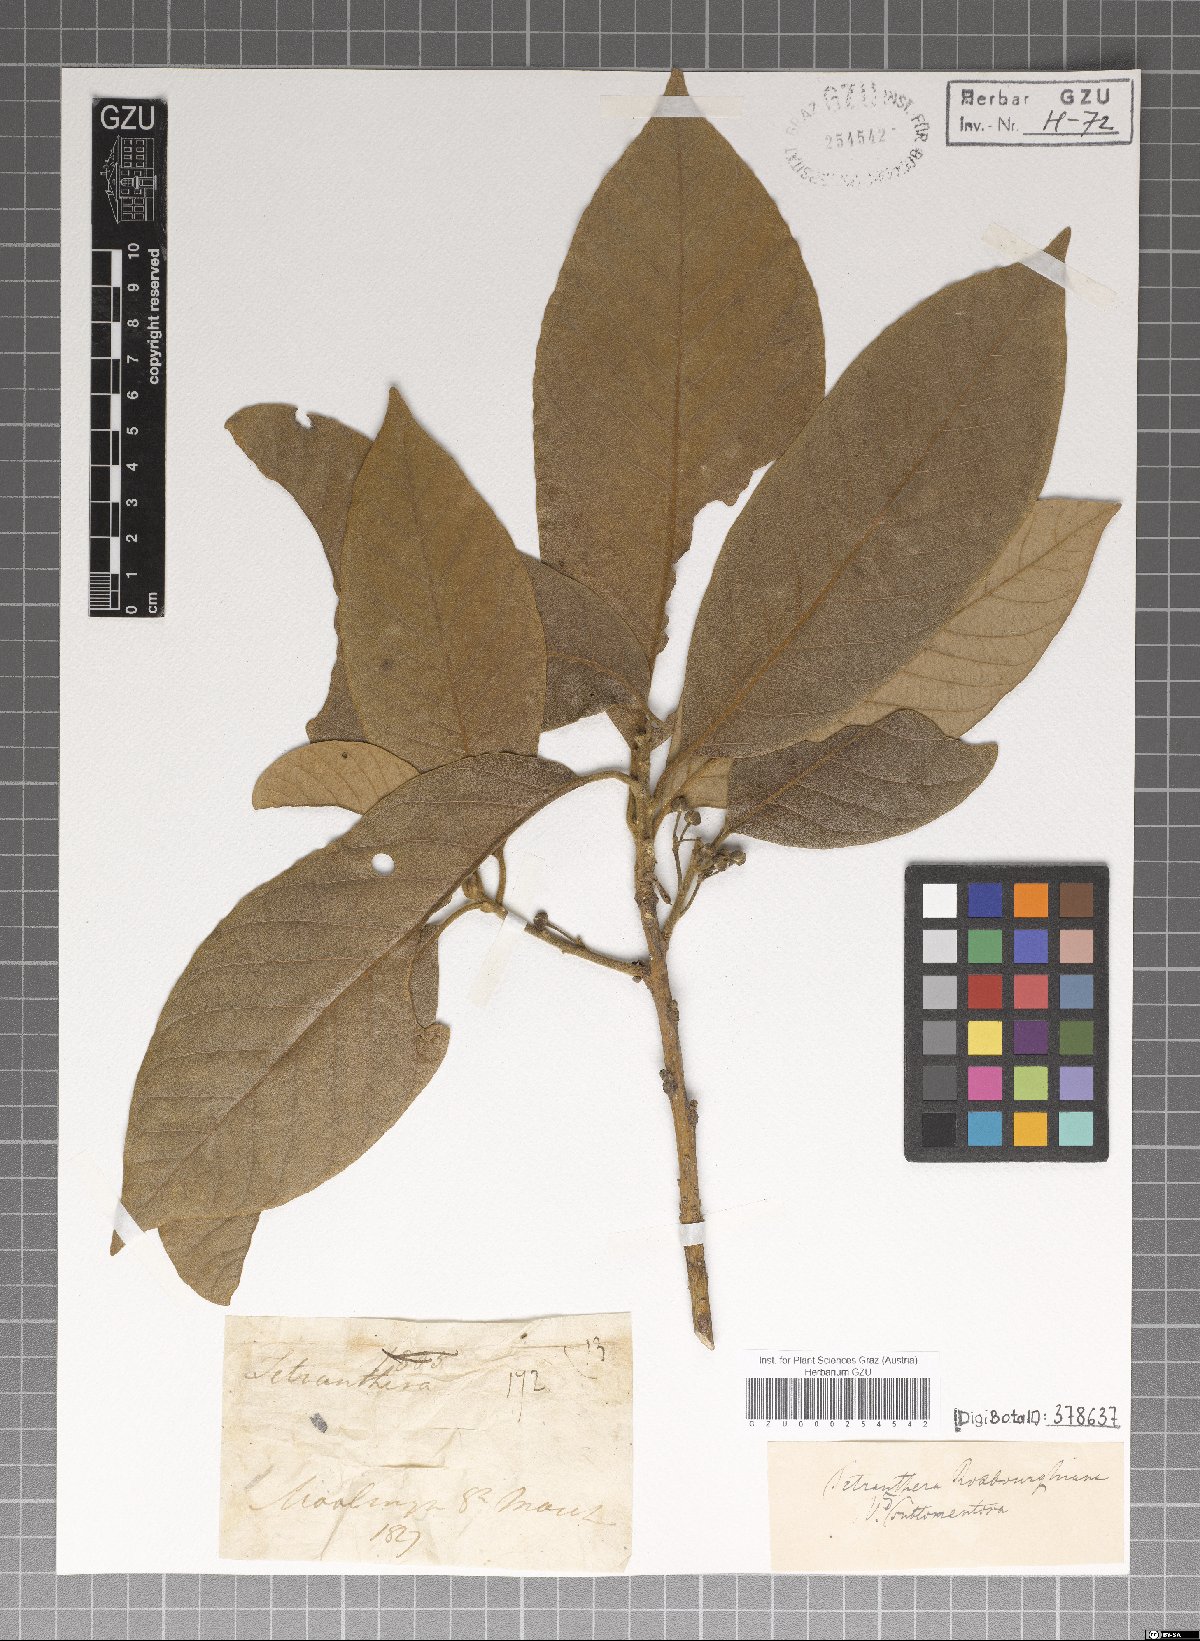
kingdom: Plantae
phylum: Tracheophyta
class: Magnoliopsida
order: Laurales
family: Lauraceae
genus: Litsea
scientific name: Litsea glutinosa
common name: Indian-laurel
